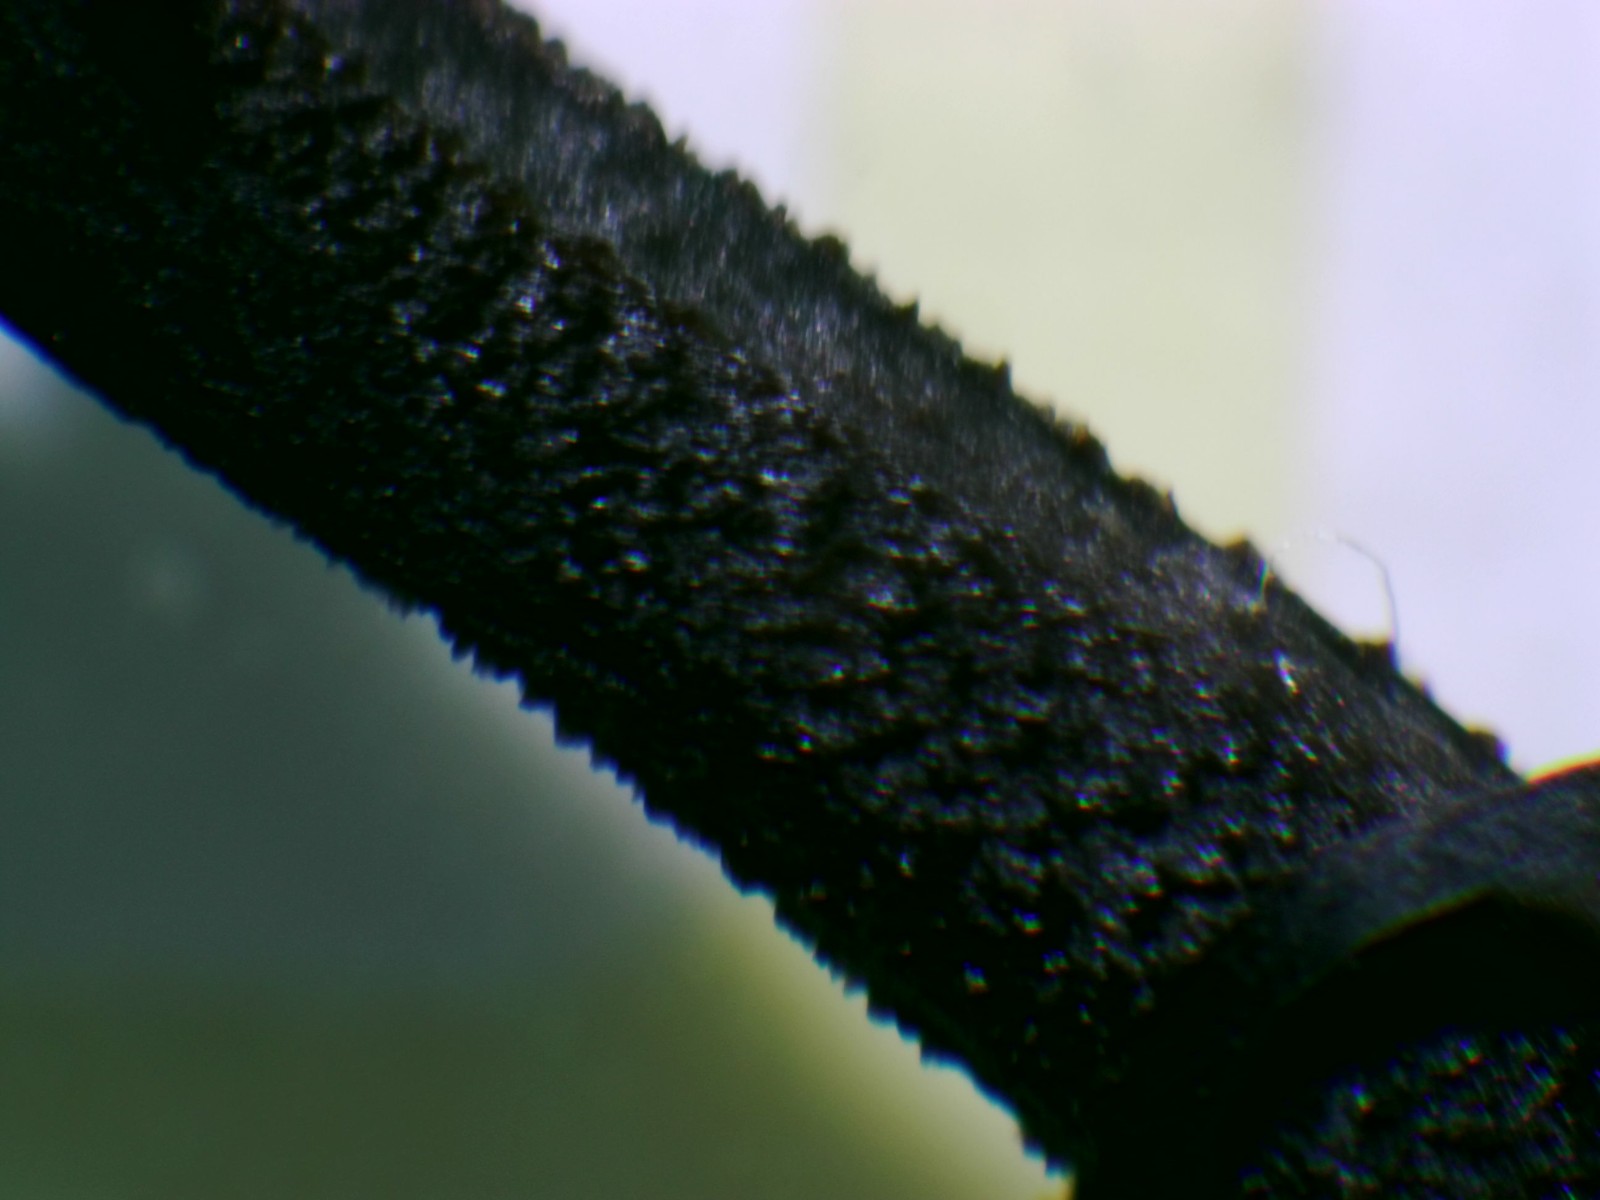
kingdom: Fungi
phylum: Ascomycota
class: Geoglossomycetes
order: Geoglossales
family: Geoglossaceae
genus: Geoglossum
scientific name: Geoglossum fallax
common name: småskællet jordtunge
